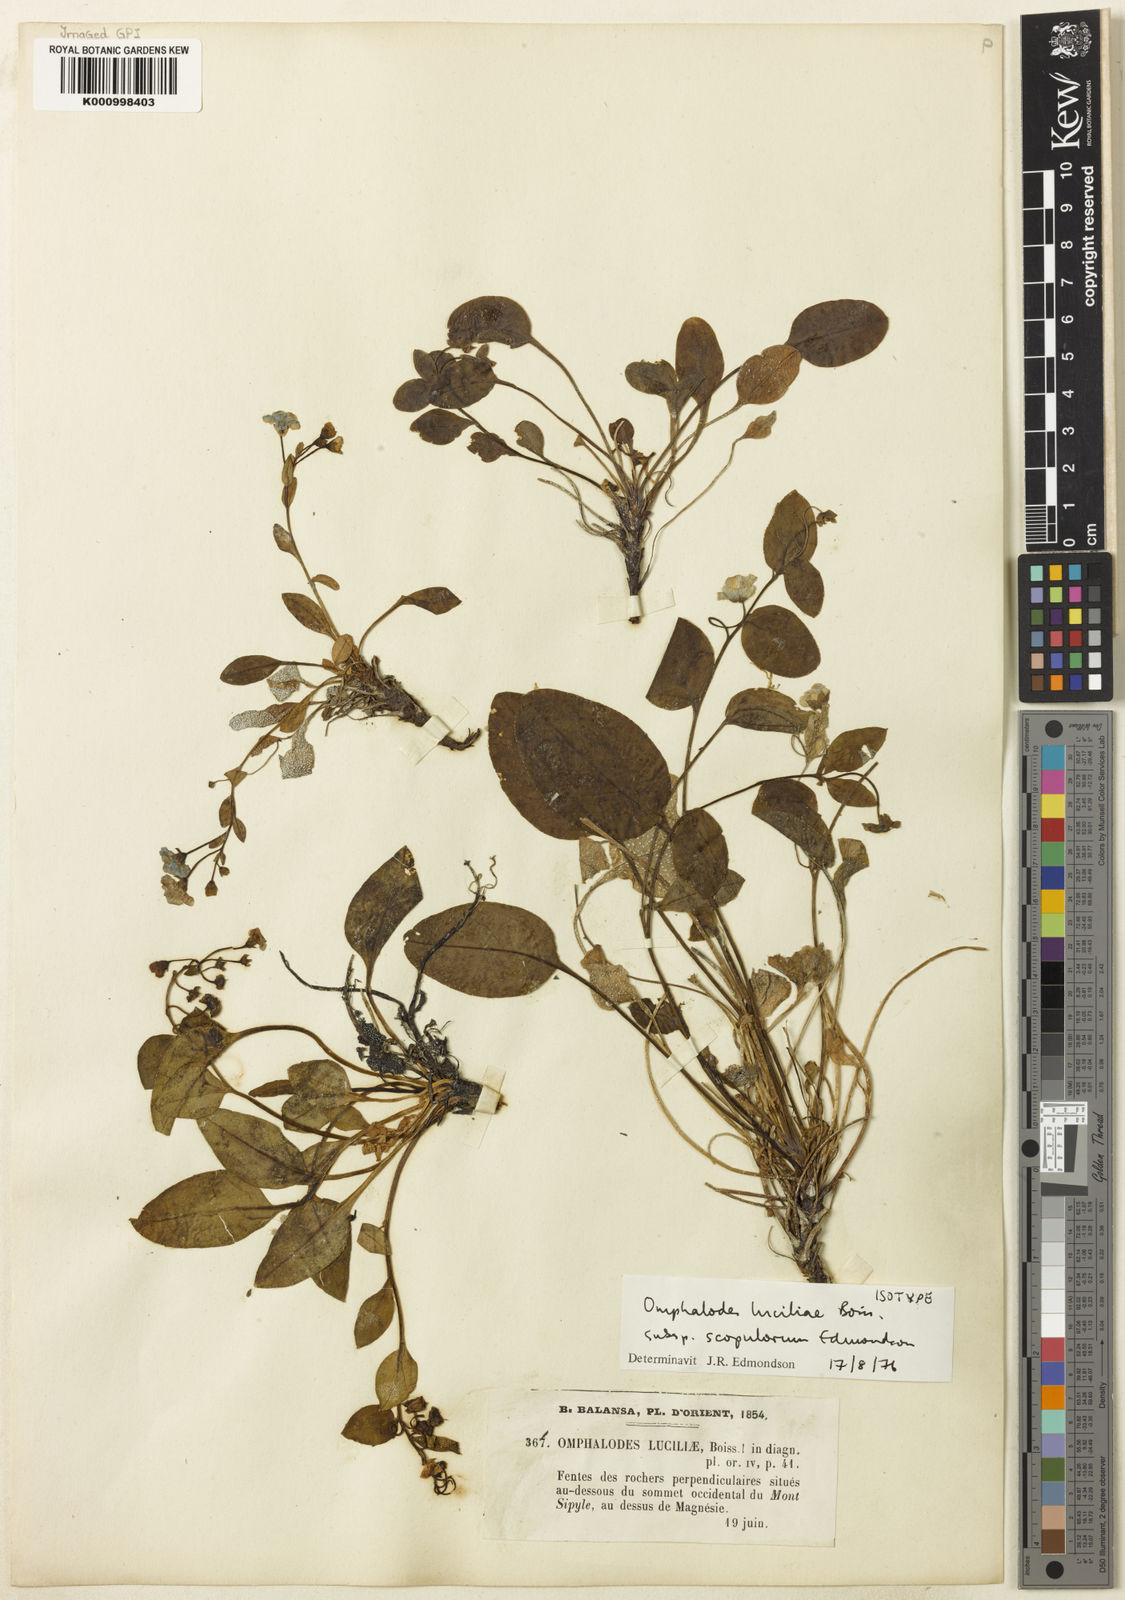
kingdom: Plantae
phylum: Tracheophyta
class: Magnoliopsida
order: Boraginales
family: Boraginaceae
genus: Omphalodes
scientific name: Omphalodes luciliae
